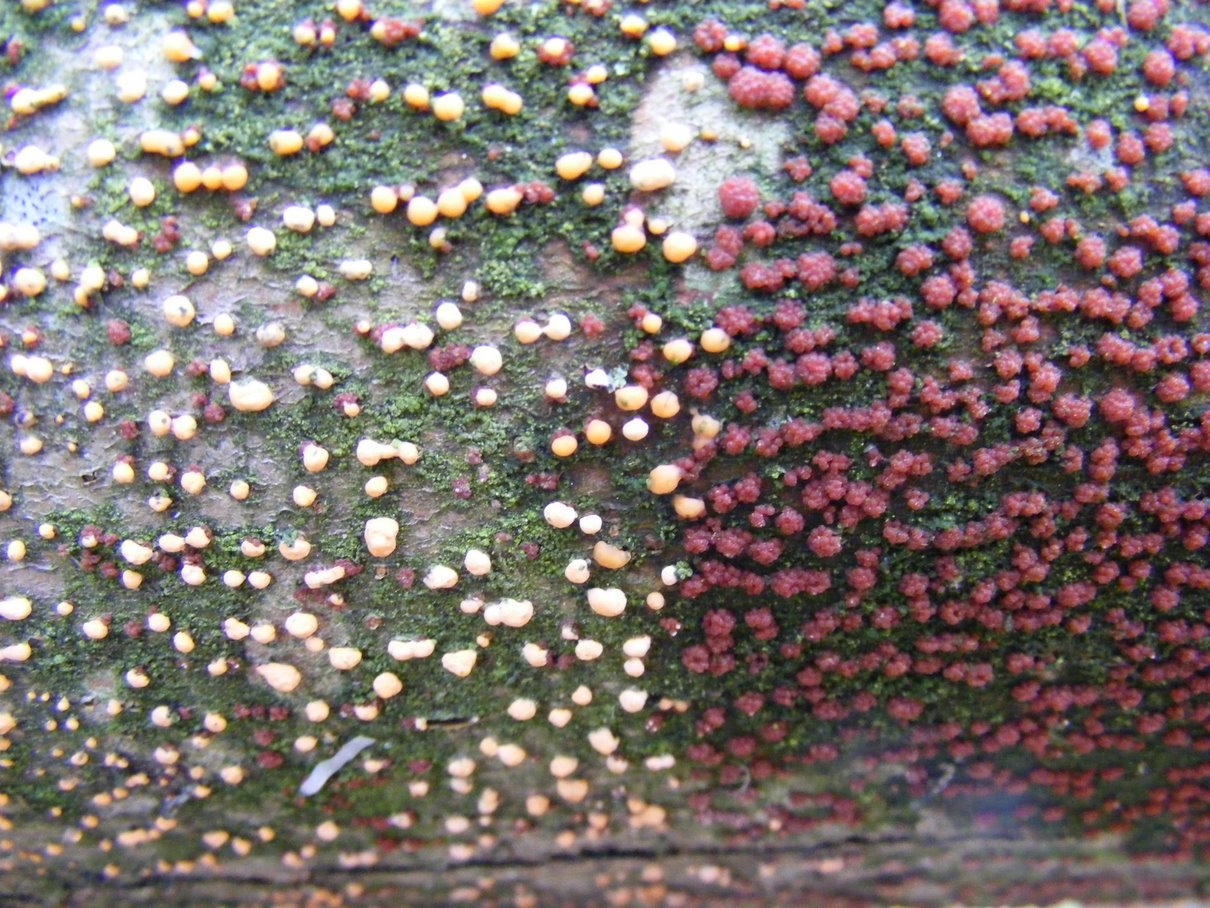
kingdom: Fungi
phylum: Ascomycota
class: Sordariomycetes
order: Hypocreales
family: Nectriaceae
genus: Nectria
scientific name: Nectria cinnabarina
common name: almindelig cinnobersvamp
